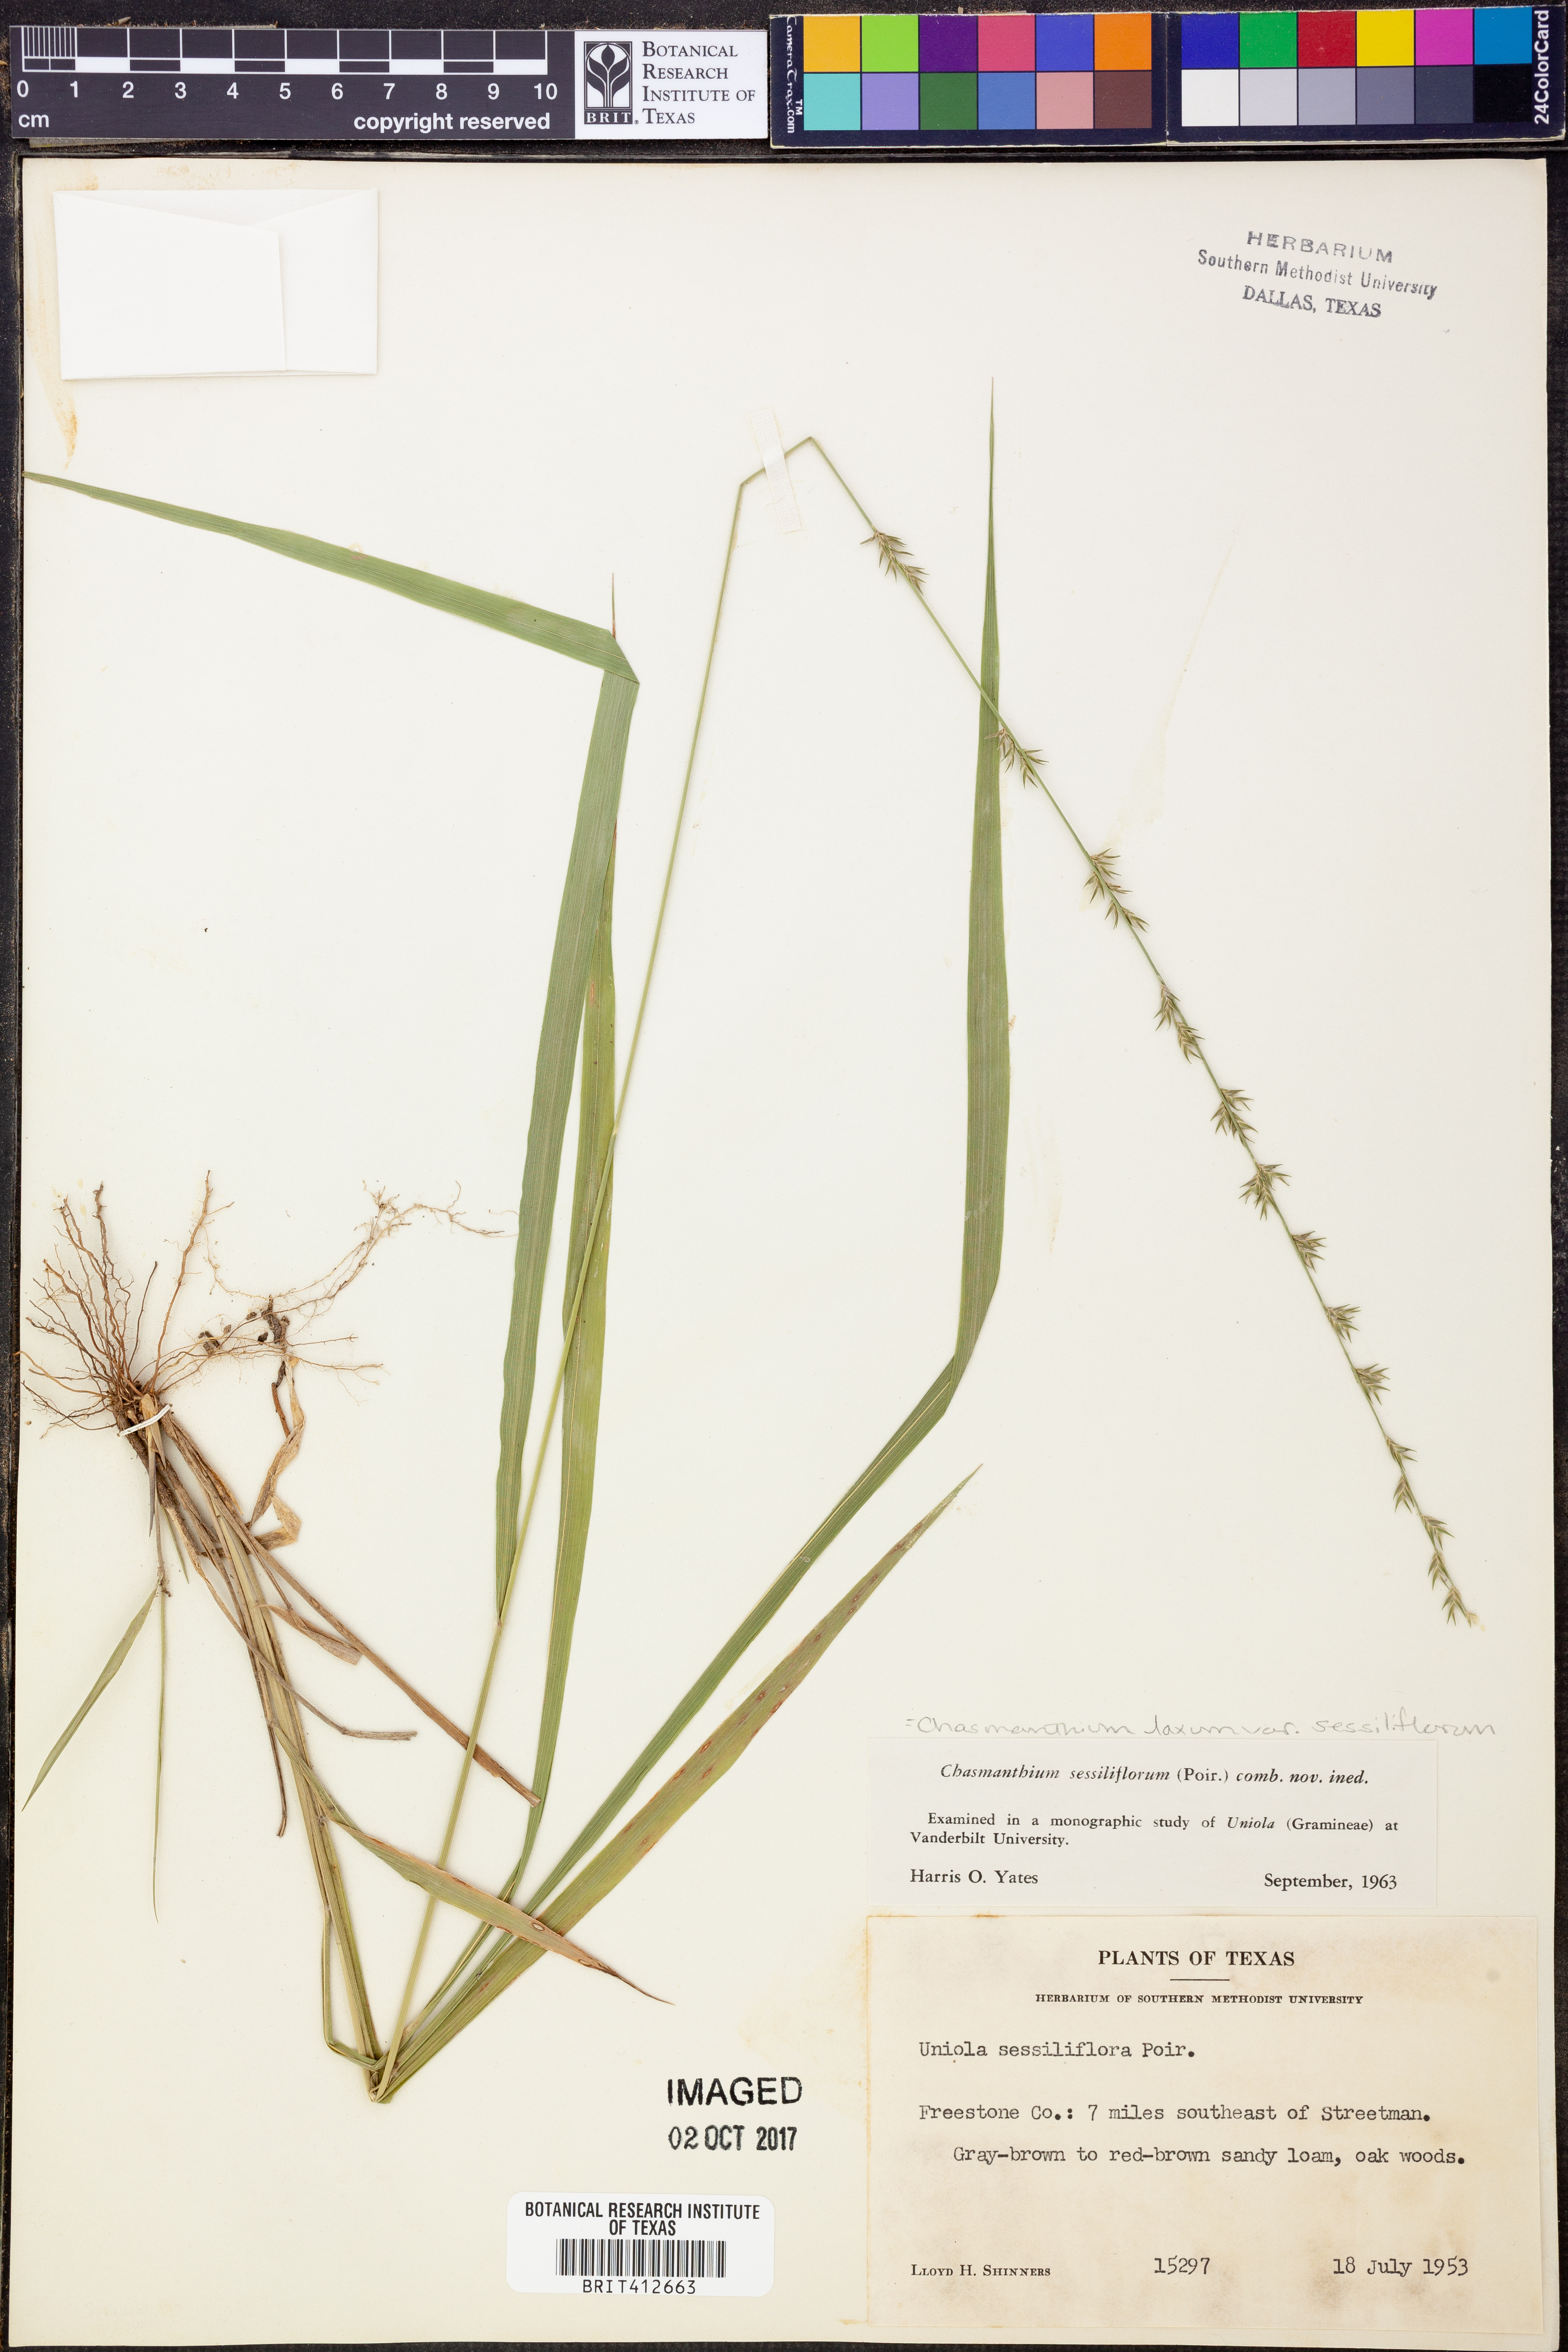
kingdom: Plantae
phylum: Tracheophyta
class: Liliopsida
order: Poales
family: Poaceae
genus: Chasmanthium
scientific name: Chasmanthium laxum
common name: Slender chasmanthium
